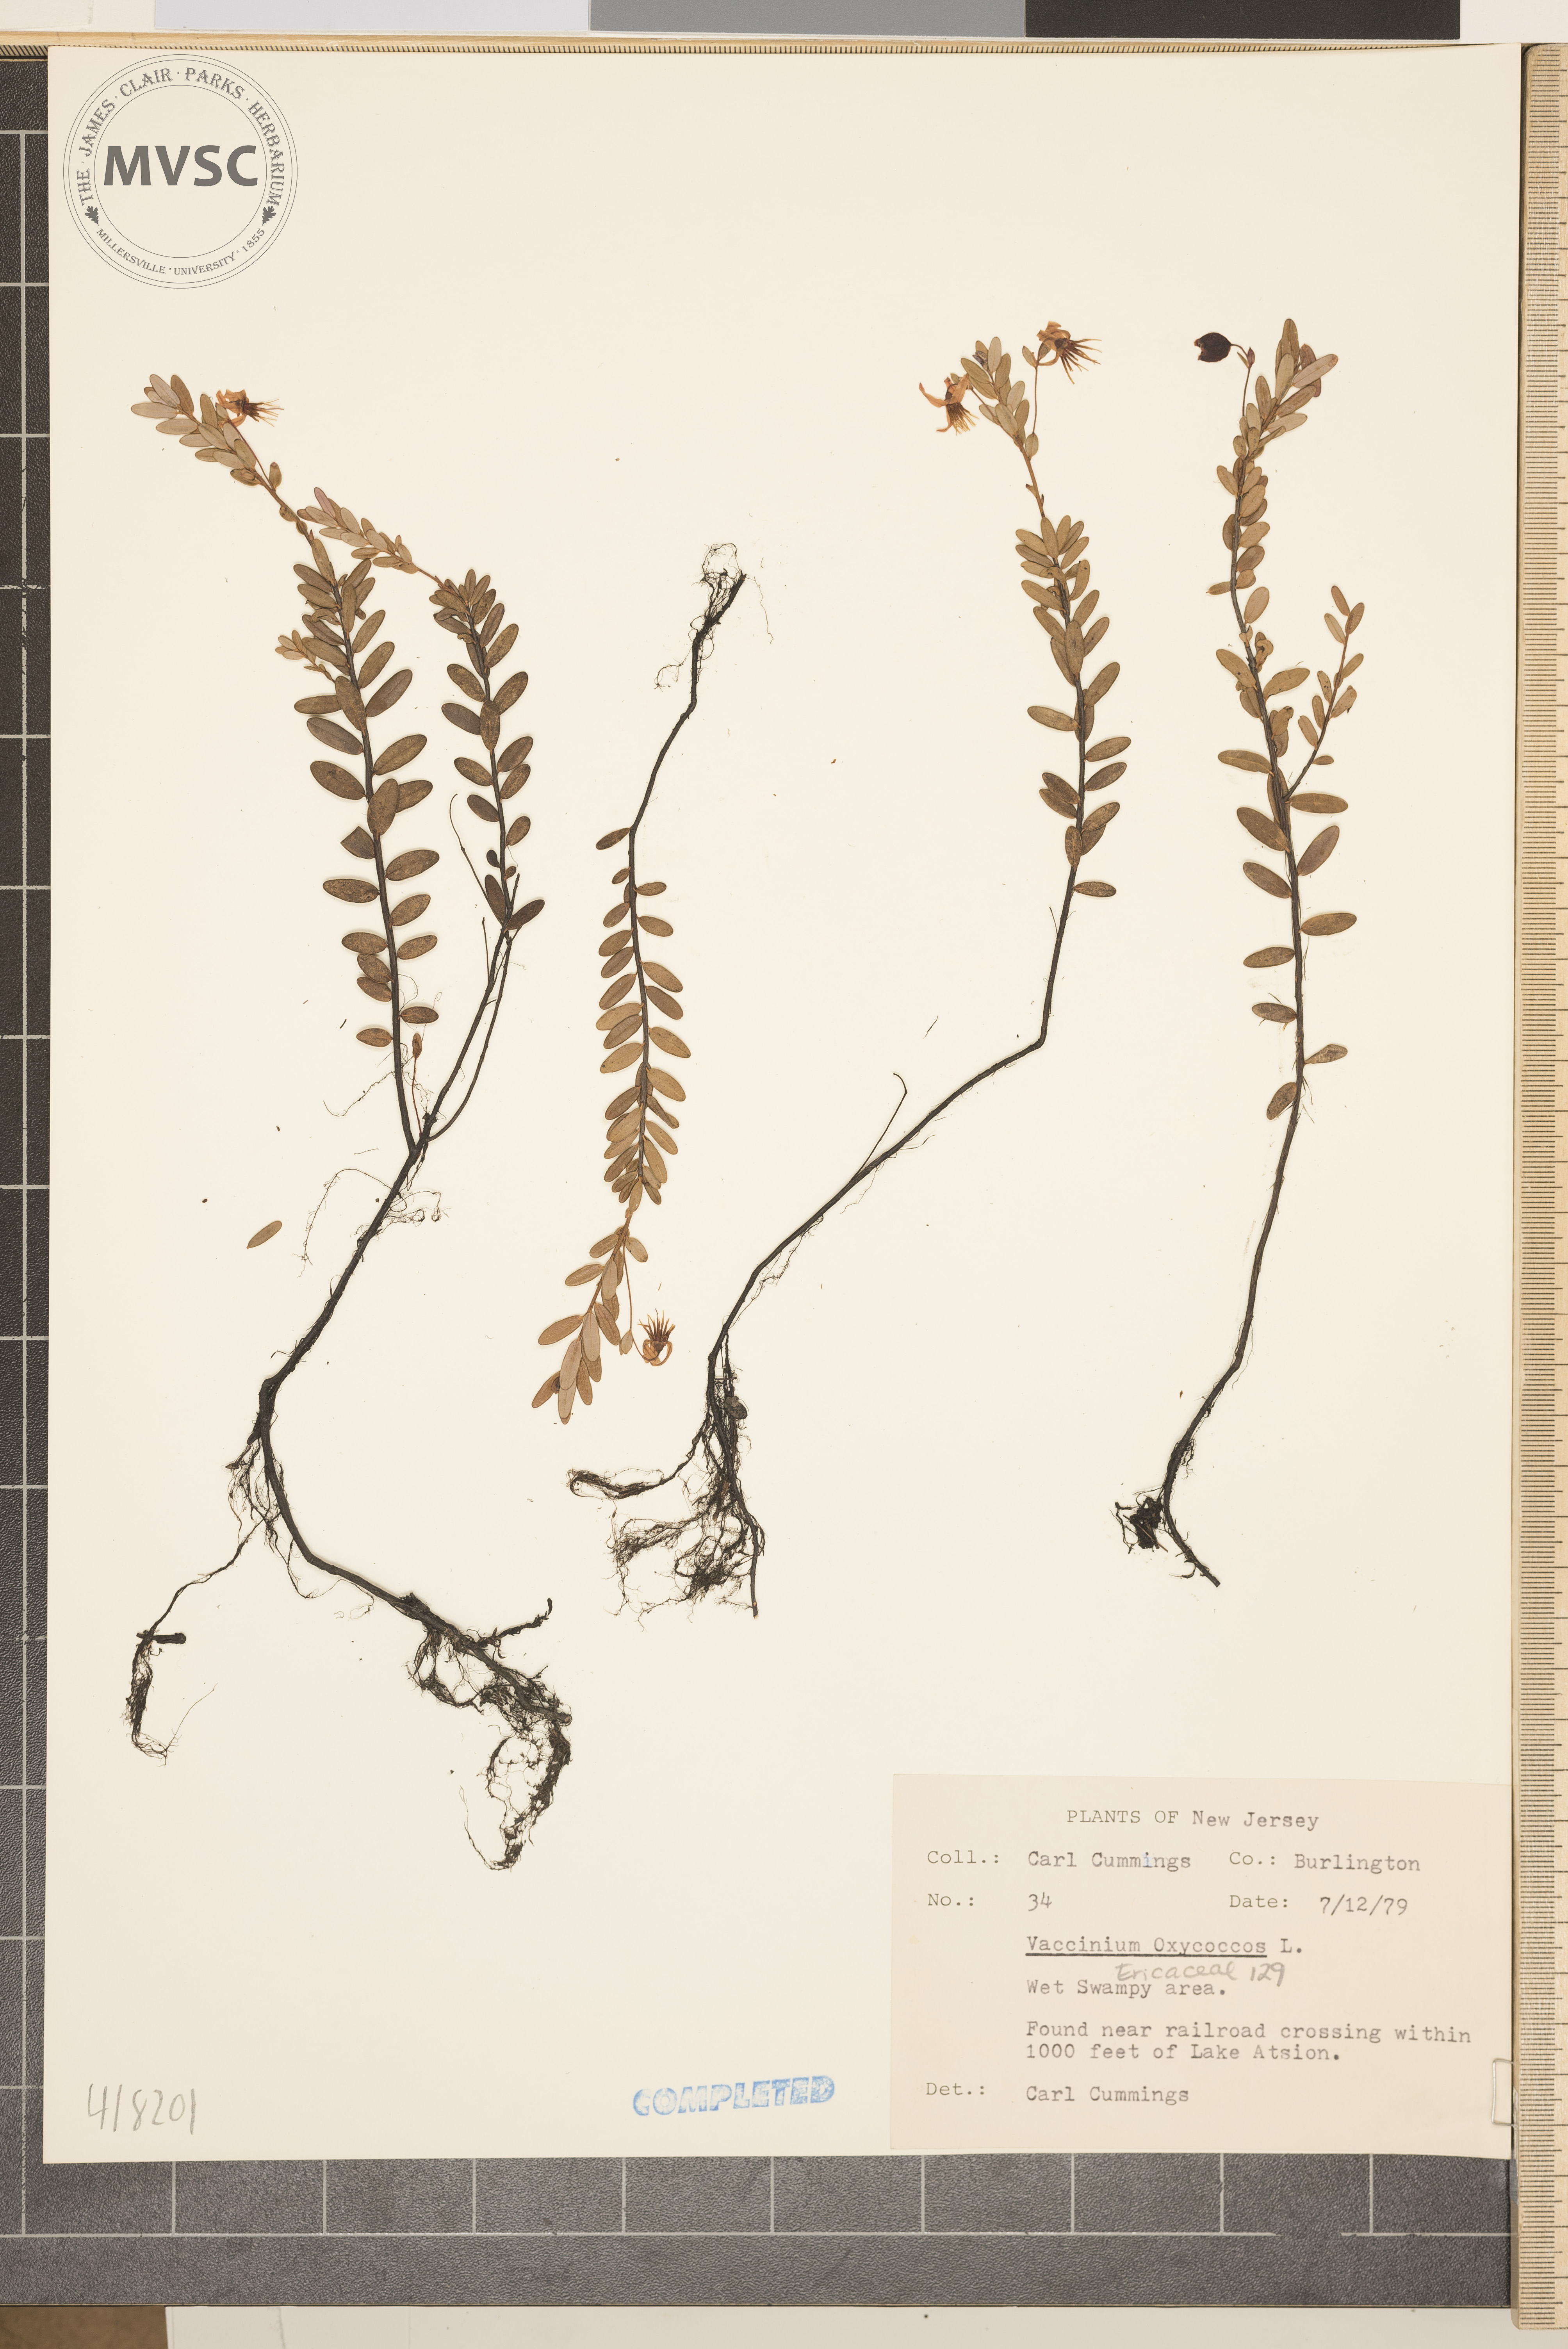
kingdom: Plantae
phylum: Tracheophyta
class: Magnoliopsida
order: Ericales
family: Ericaceae
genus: Vaccinium
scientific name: Vaccinium macrocarpon
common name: Bog cranberry
